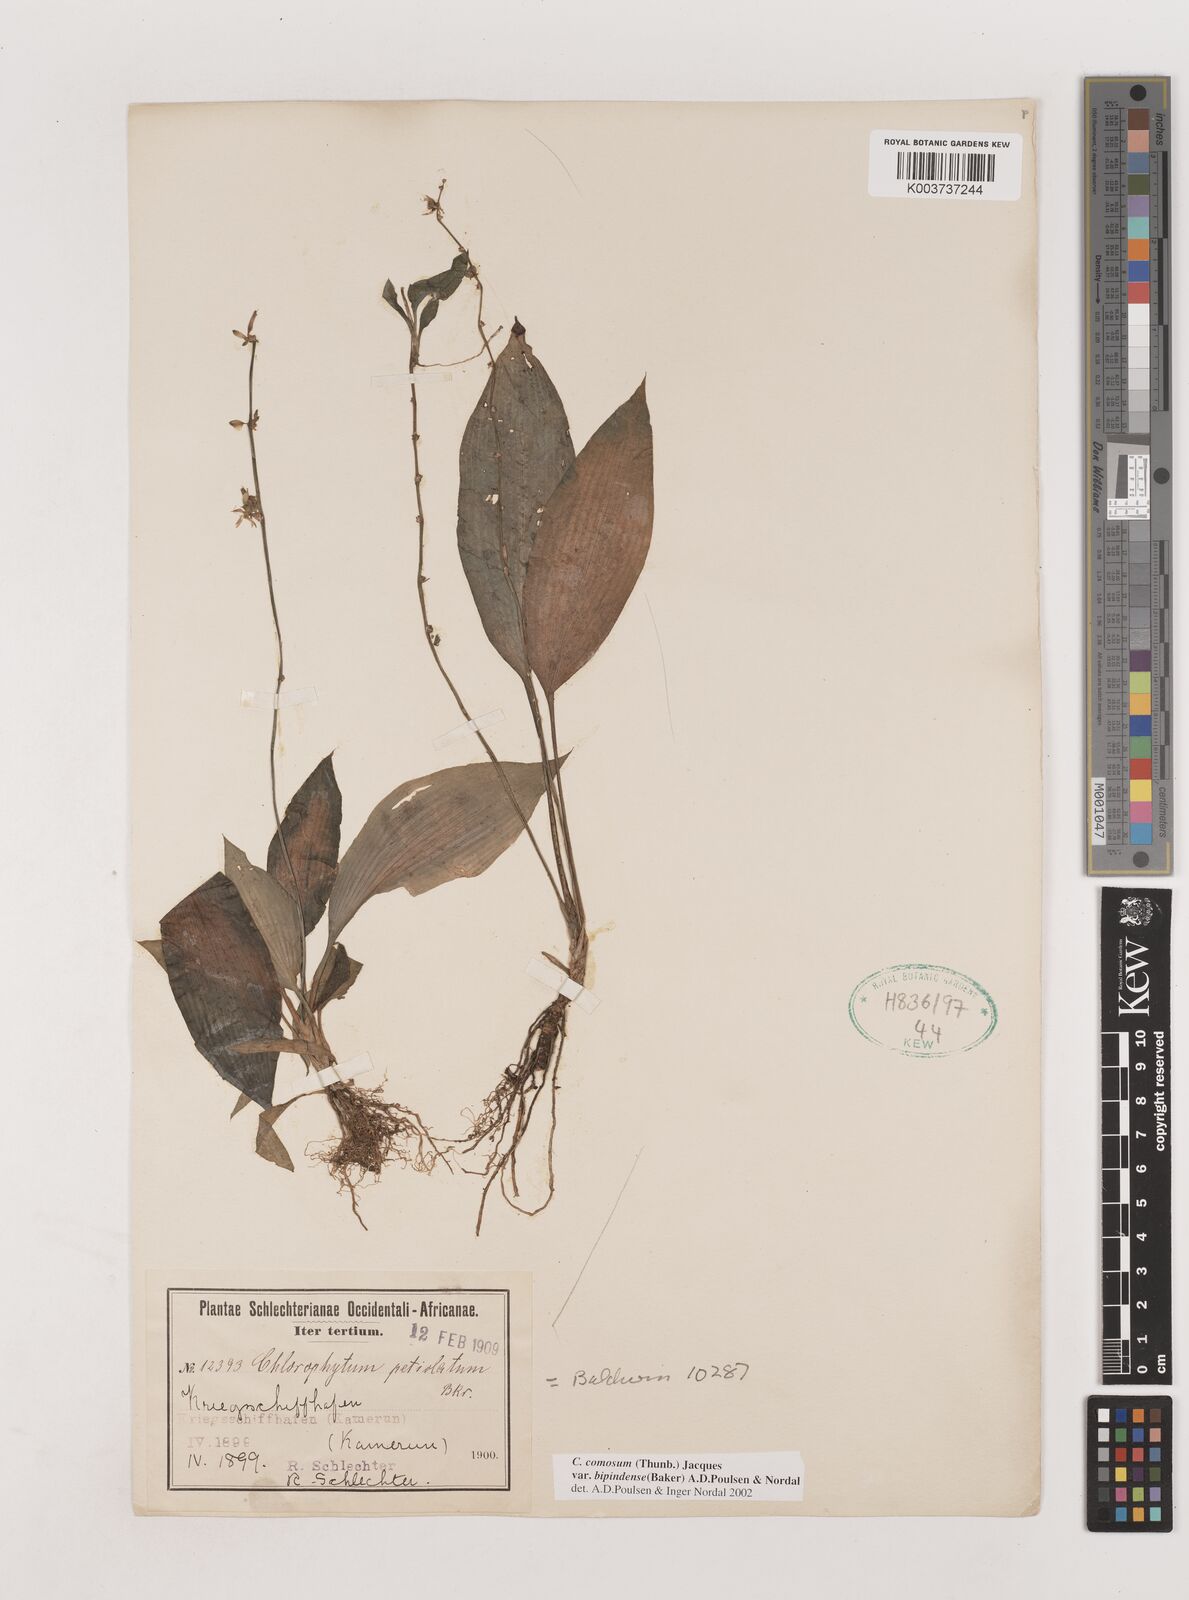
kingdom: Plantae
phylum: Tracheophyta
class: Liliopsida
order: Asparagales
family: Asparagaceae
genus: Chlorophytum
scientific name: Chlorophytum sparsiflorum
